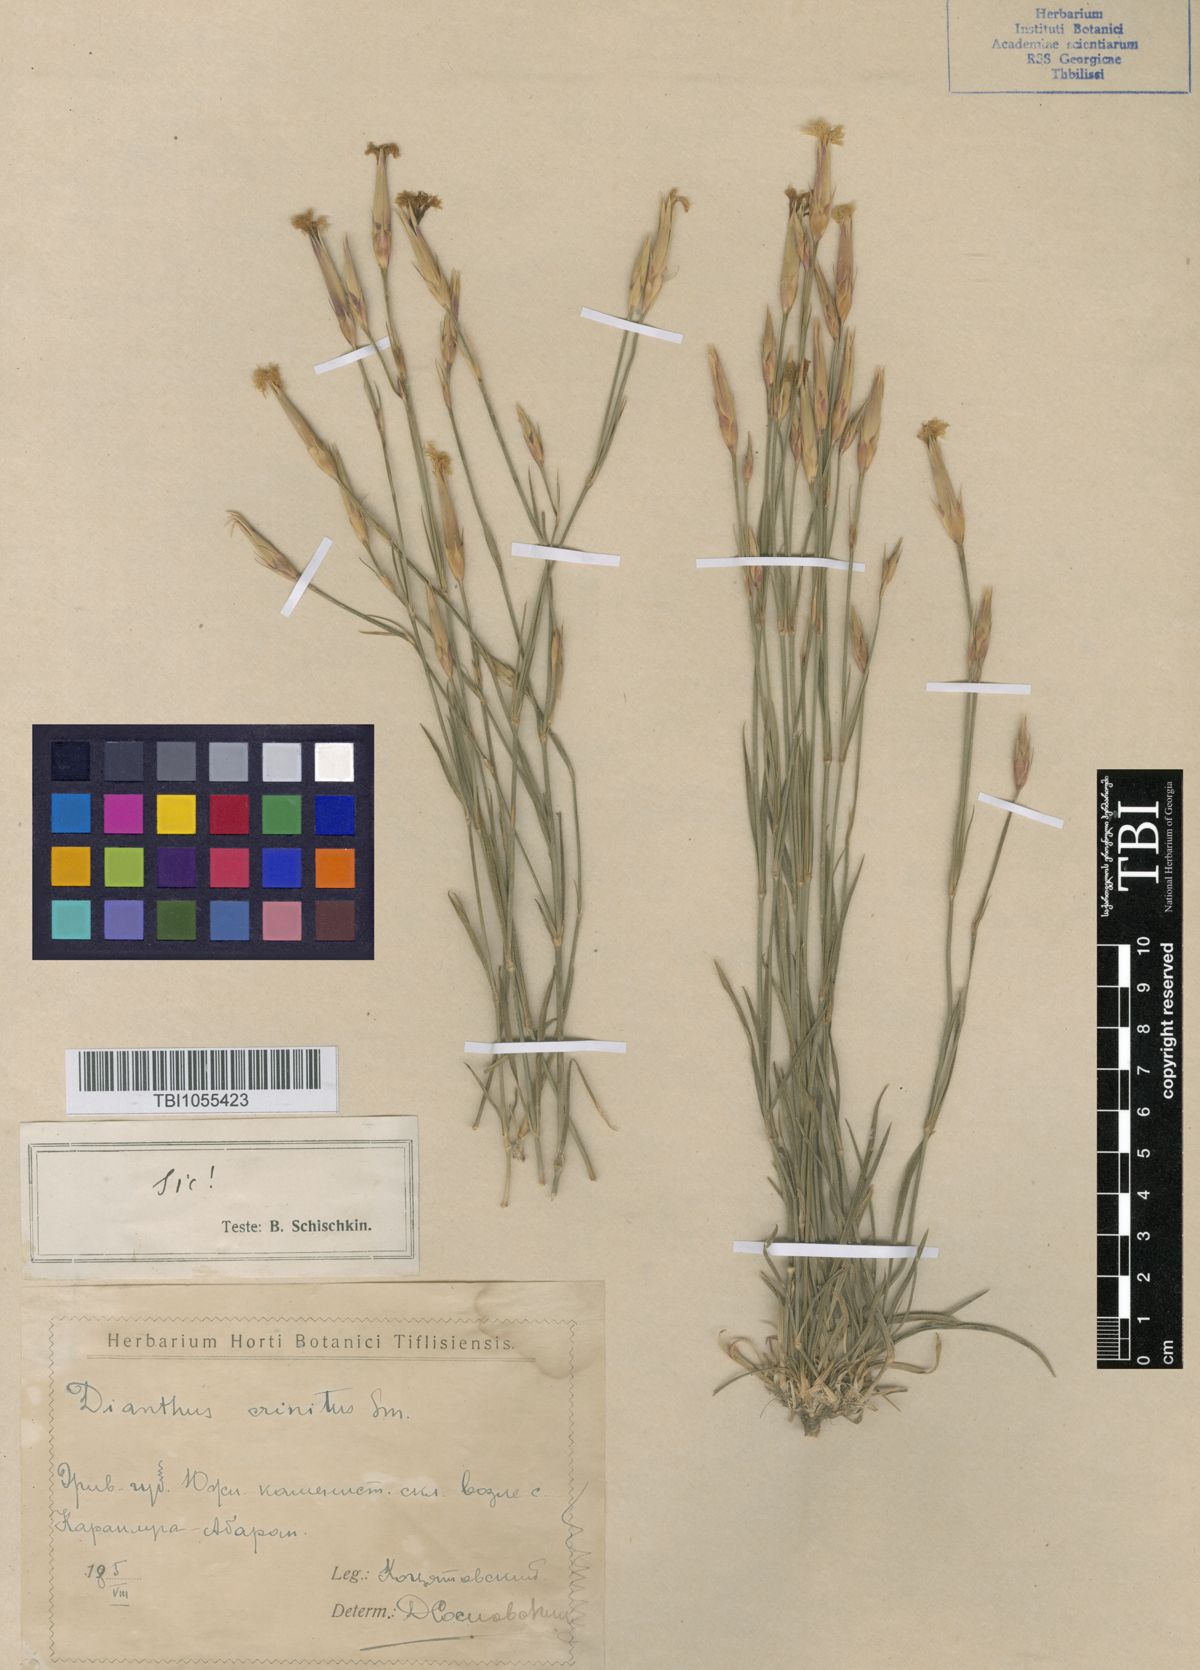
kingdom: Plantae
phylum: Tracheophyta
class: Magnoliopsida
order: Caryophyllales
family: Caryophyllaceae
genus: Dianthus
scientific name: Dianthus crinitus
